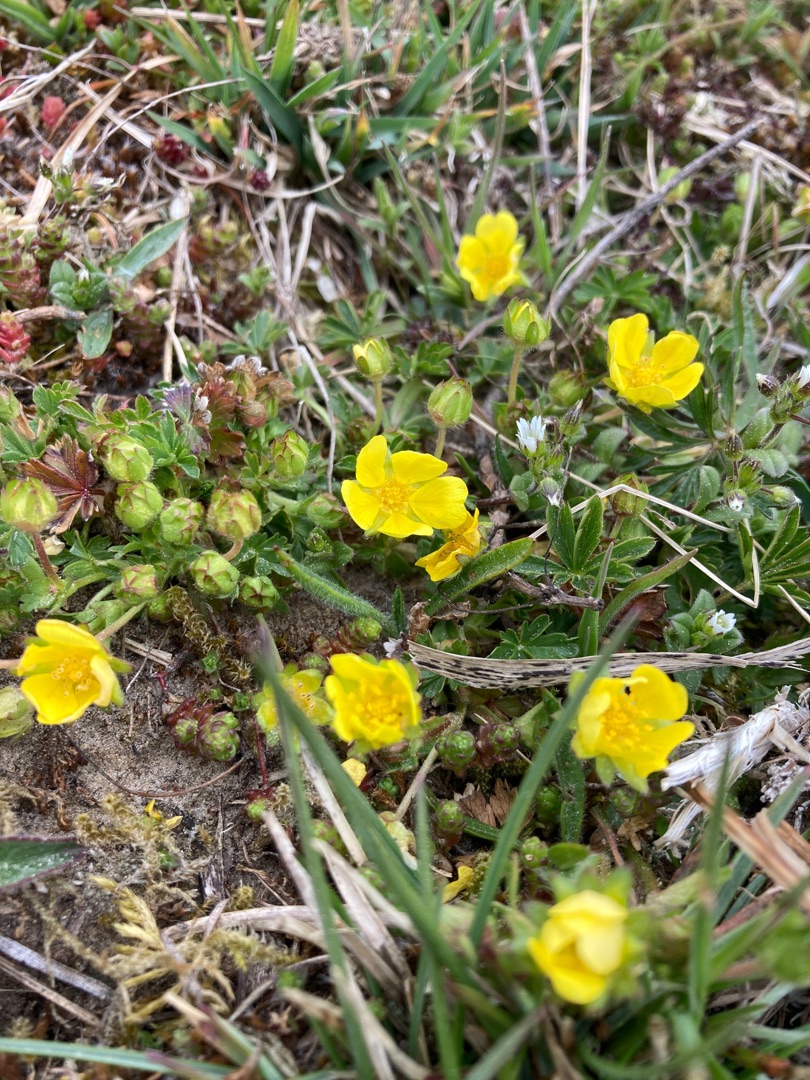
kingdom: Plantae
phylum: Tracheophyta
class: Magnoliopsida
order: Rosales
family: Rosaceae
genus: Potentilla
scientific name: Potentilla verna
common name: Vår-potentil
